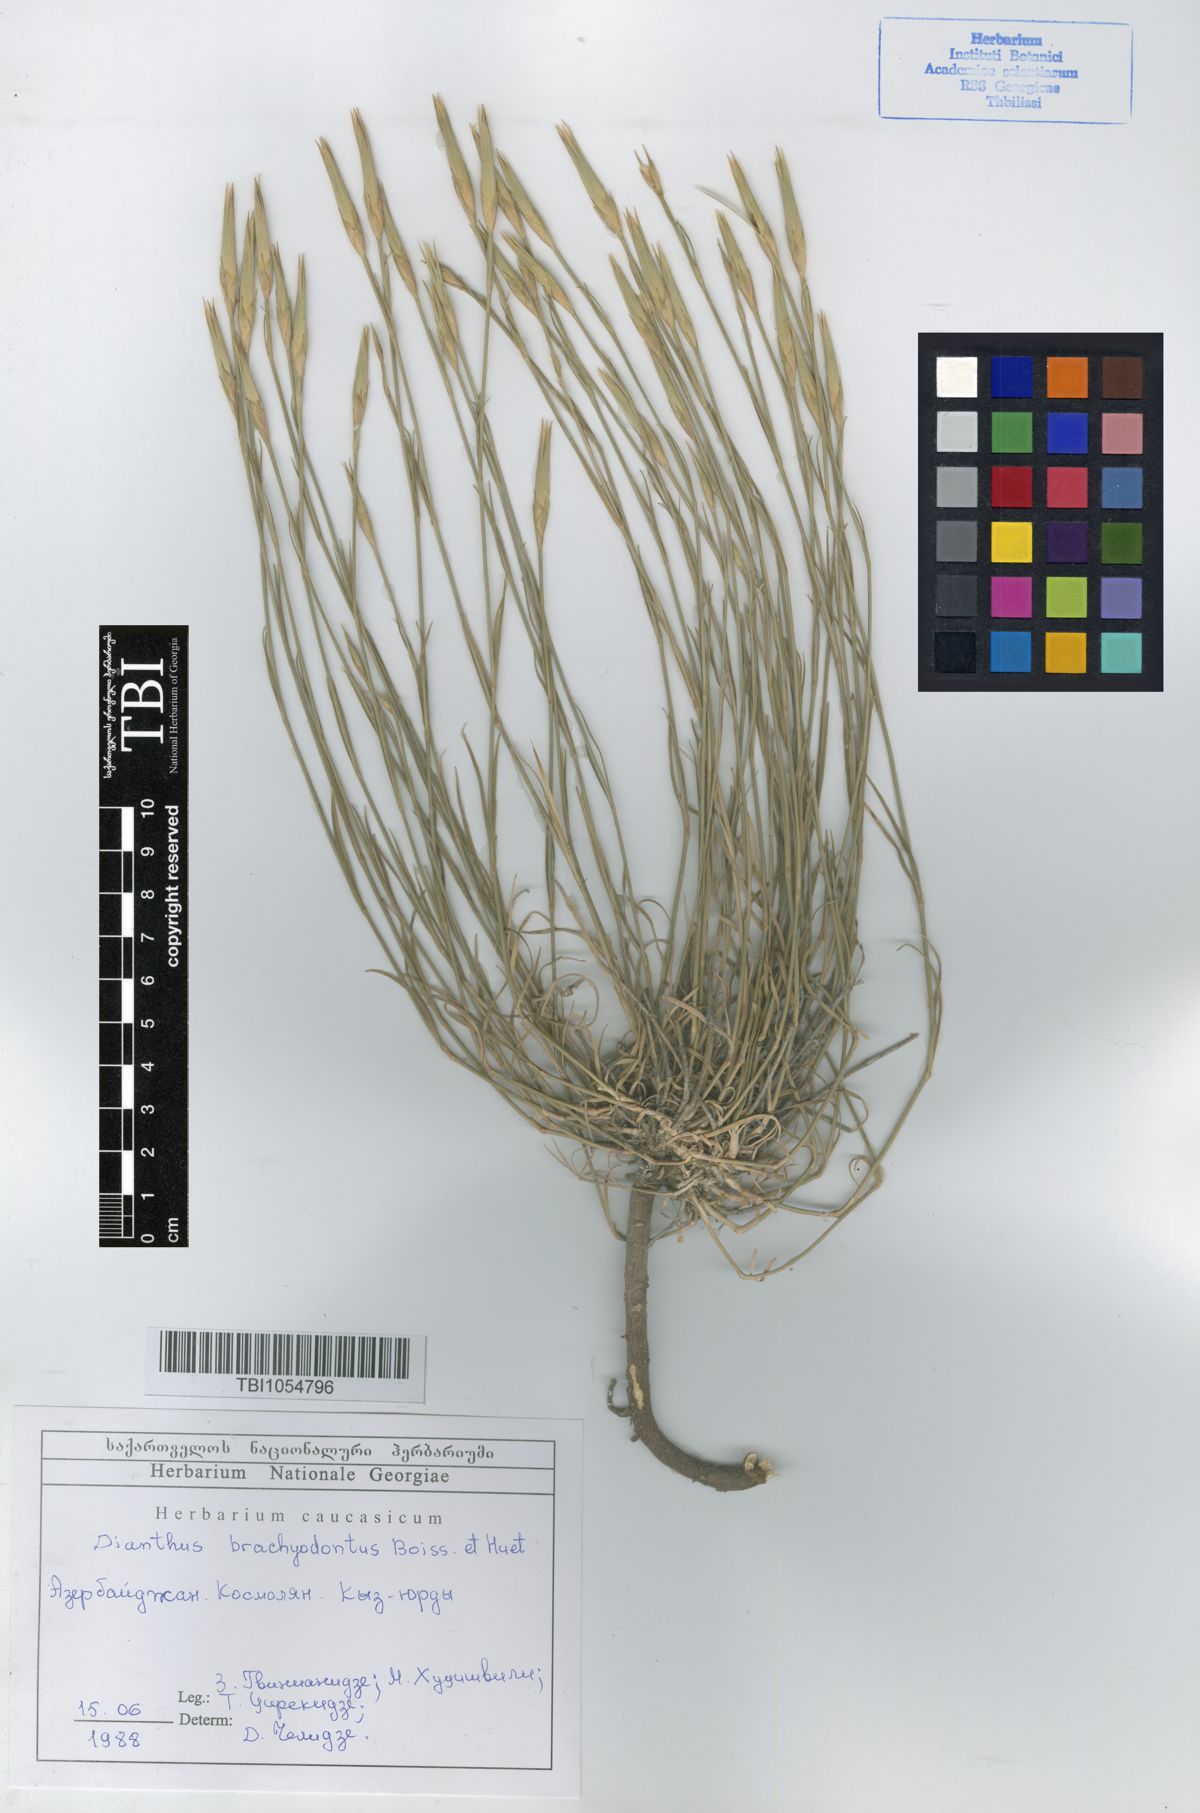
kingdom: Plantae
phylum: Tracheophyta
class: Magnoliopsida
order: Caryophyllales
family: Caryophyllaceae
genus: Dianthus
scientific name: Dianthus
